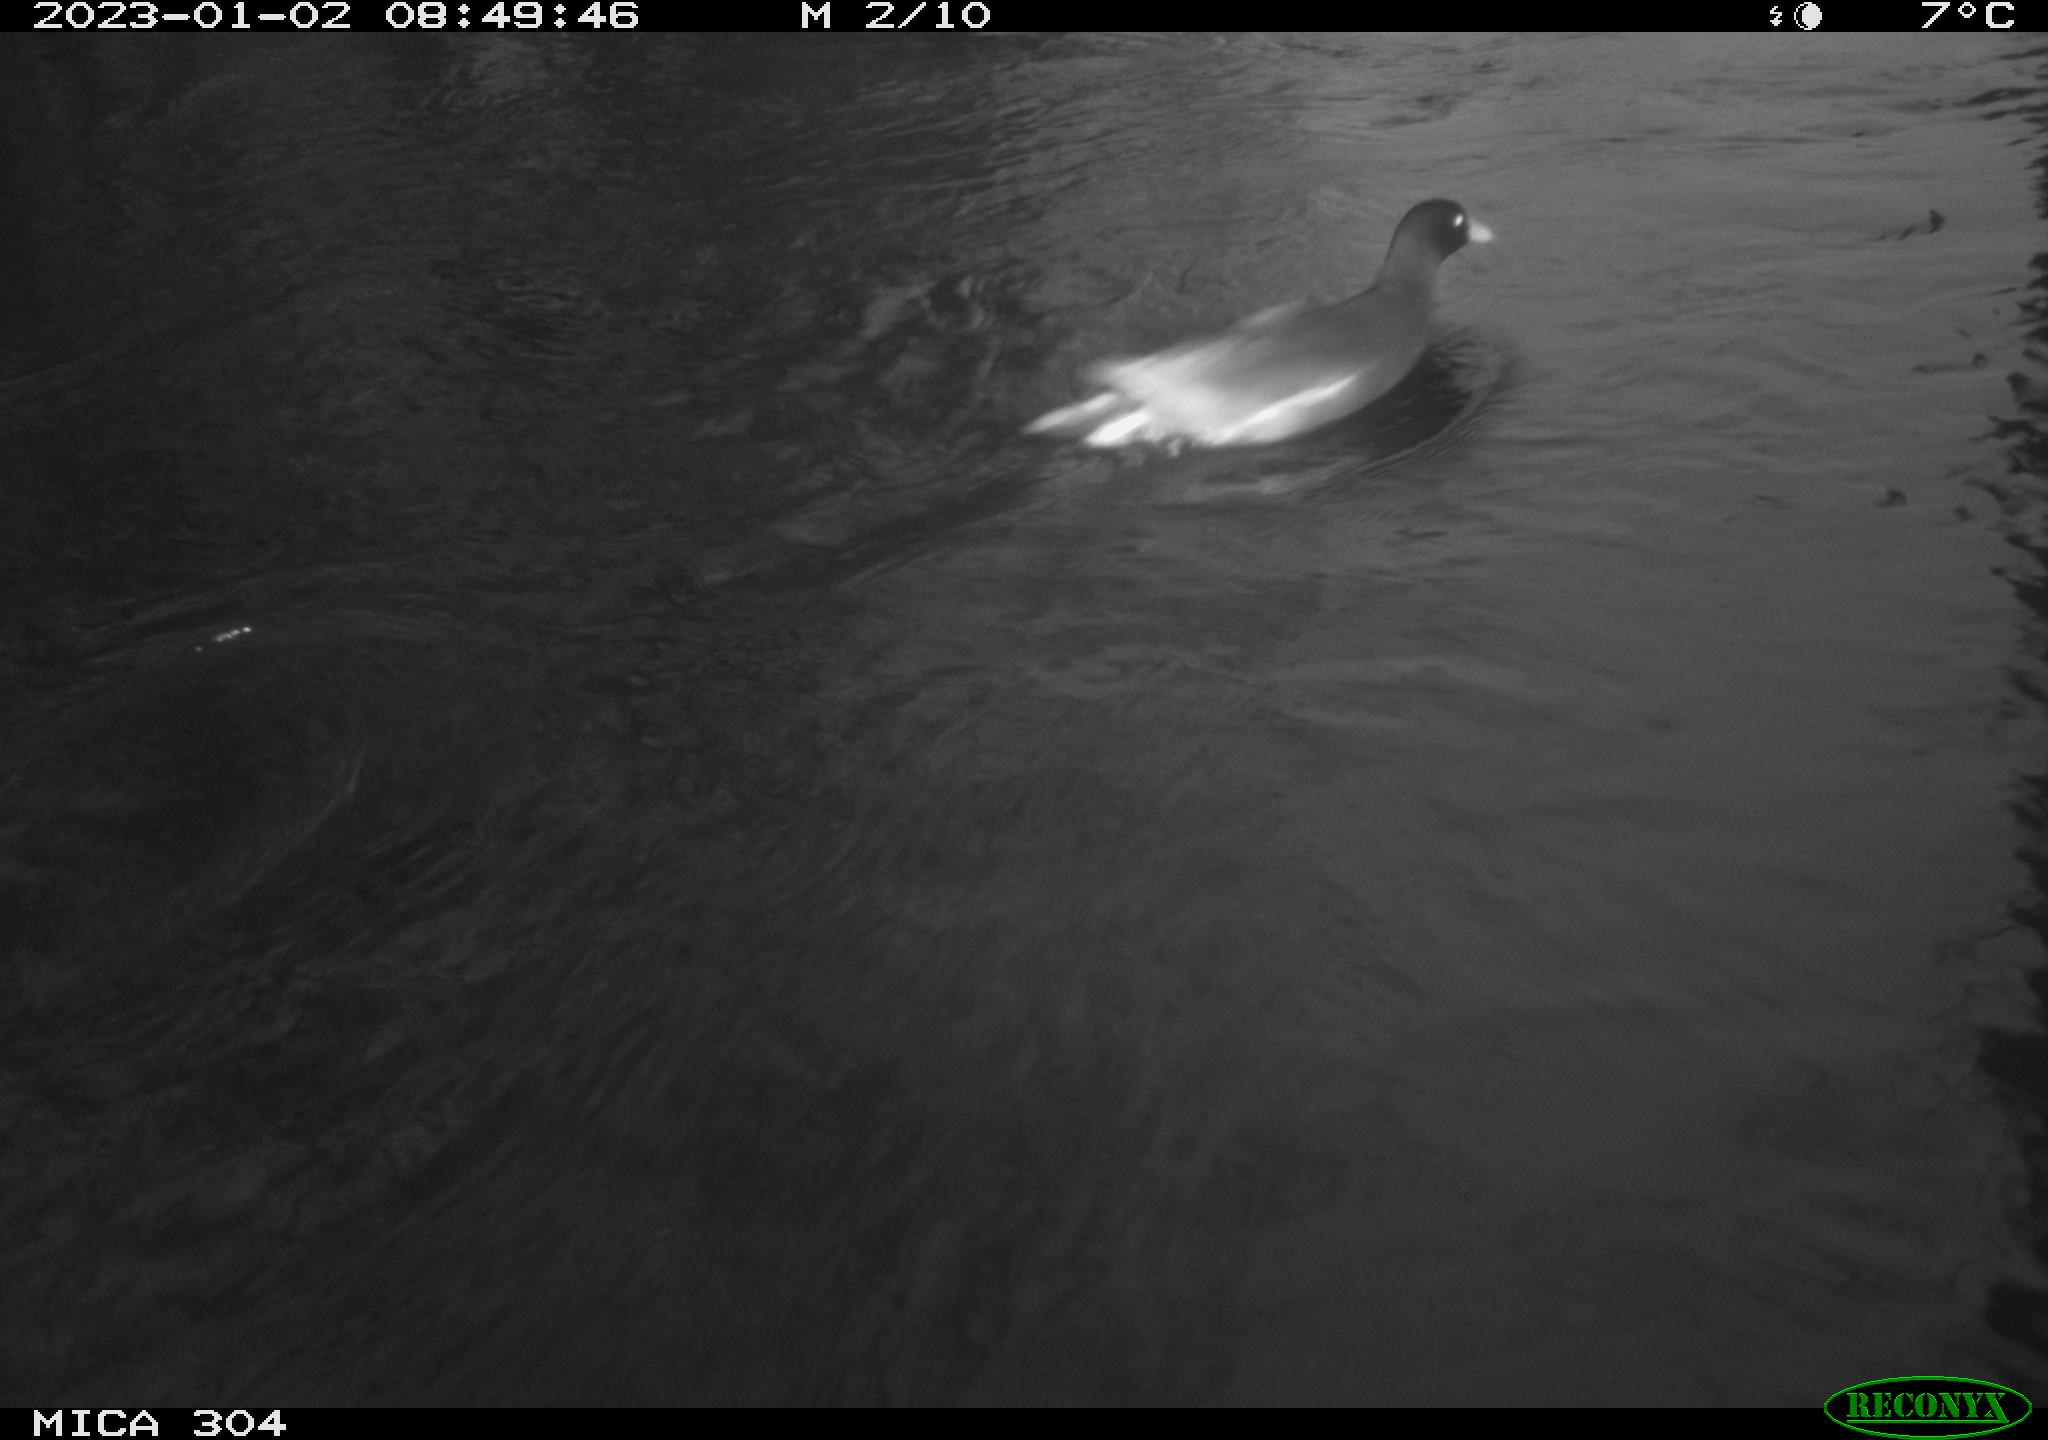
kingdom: Animalia
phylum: Chordata
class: Aves
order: Gruiformes
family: Rallidae
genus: Gallinula
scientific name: Gallinula chloropus
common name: Common moorhen
